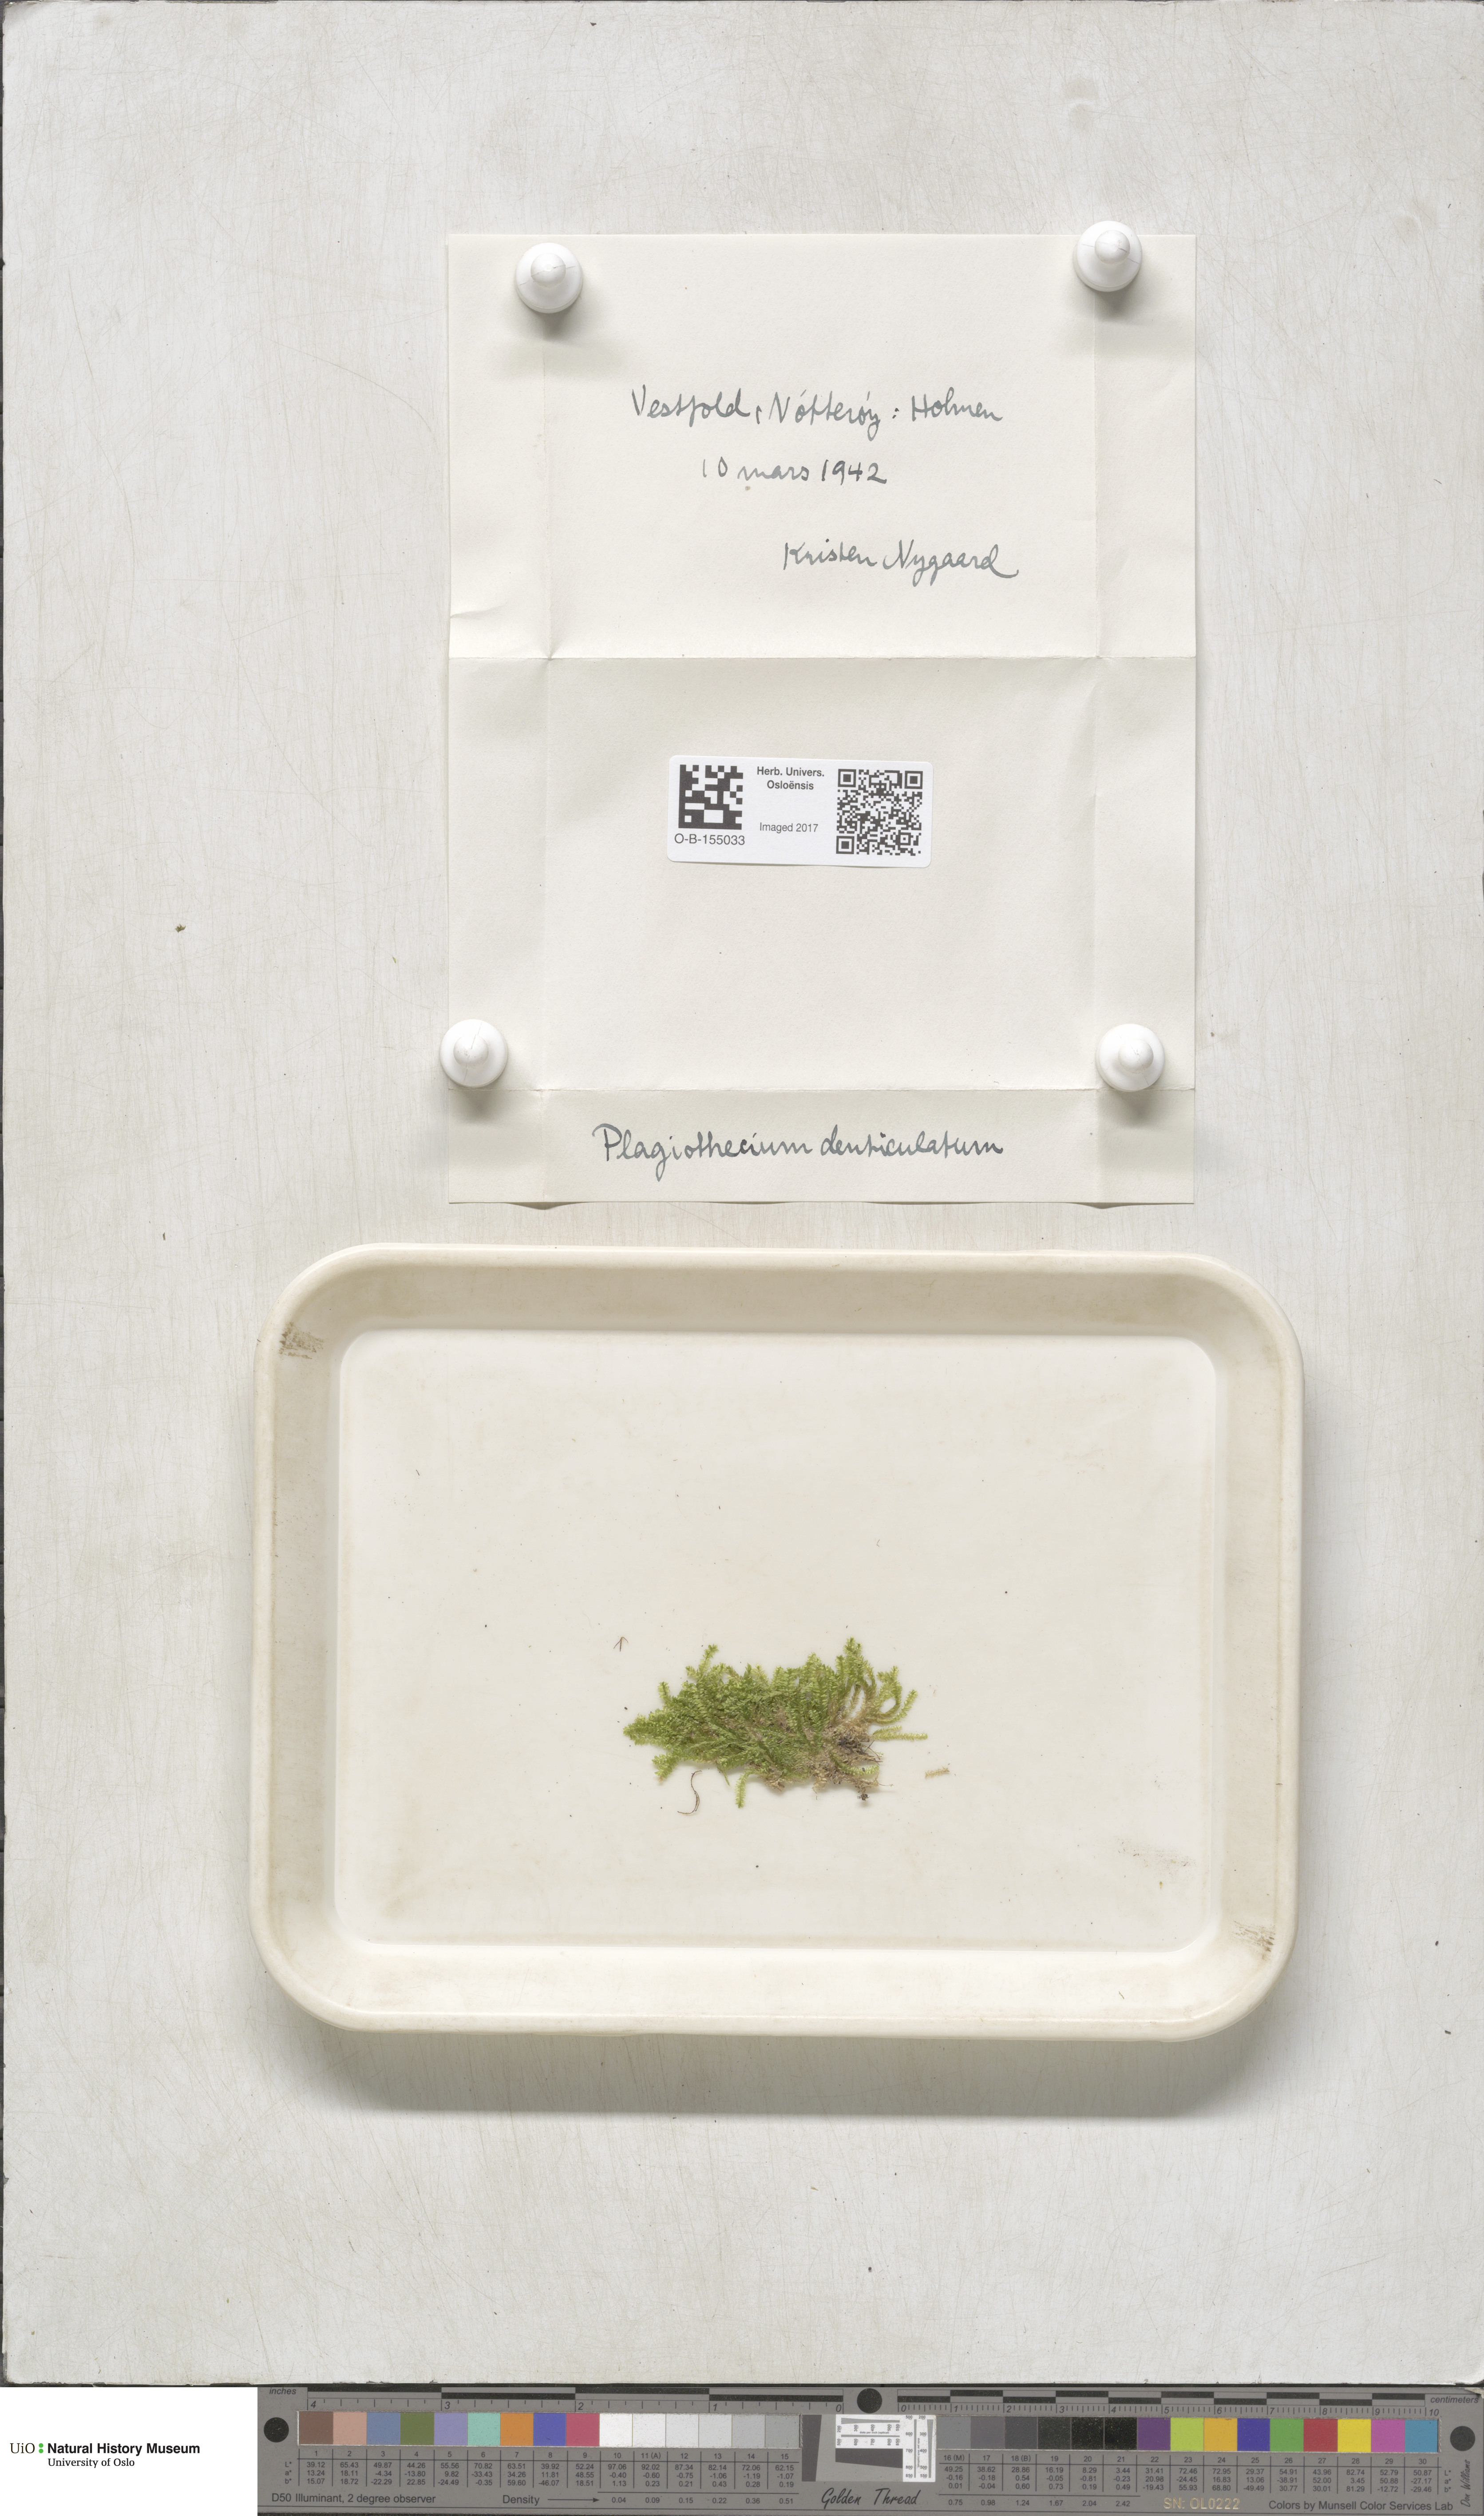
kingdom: Plantae
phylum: Bryophyta
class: Bryopsida
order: Hypnales
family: Plagiotheciaceae
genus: Plagiothecium
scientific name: Plagiothecium denticulatum
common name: Dented silk moss
